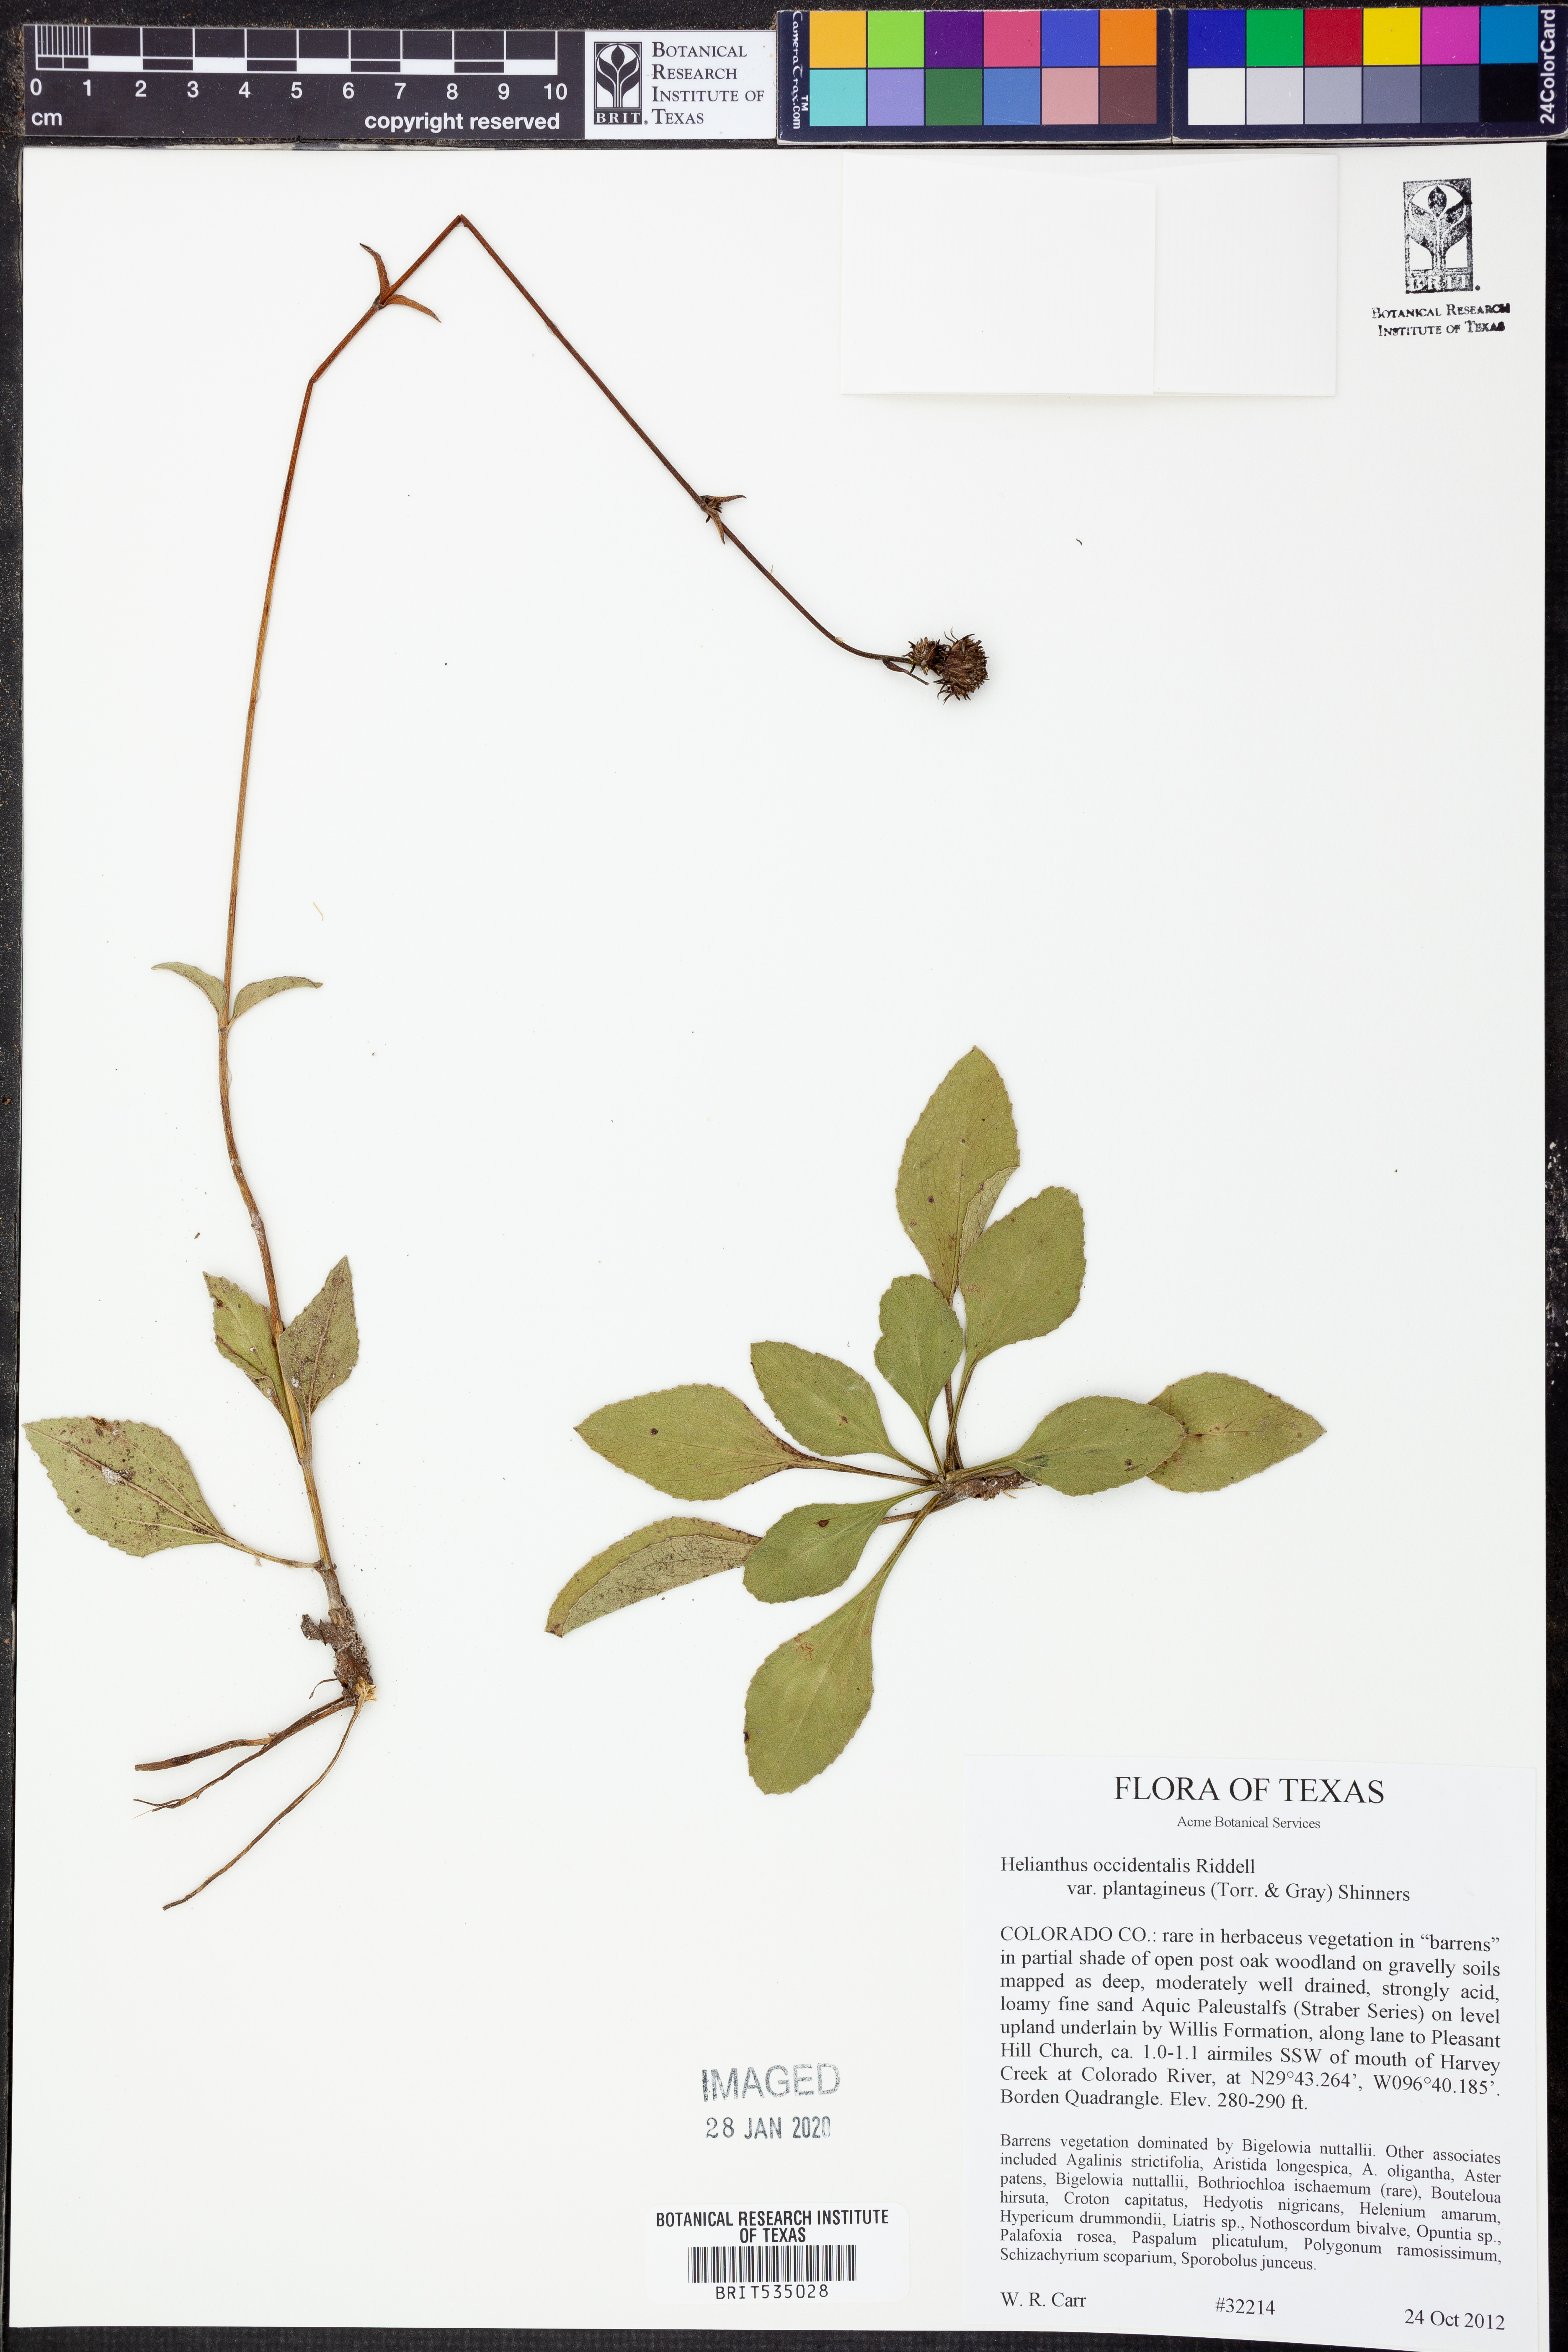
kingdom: Plantae
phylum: Tracheophyta
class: Magnoliopsida
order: Asterales
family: Asteraceae
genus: Helianthus
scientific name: Helianthus occidentalis
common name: Western sunflower
